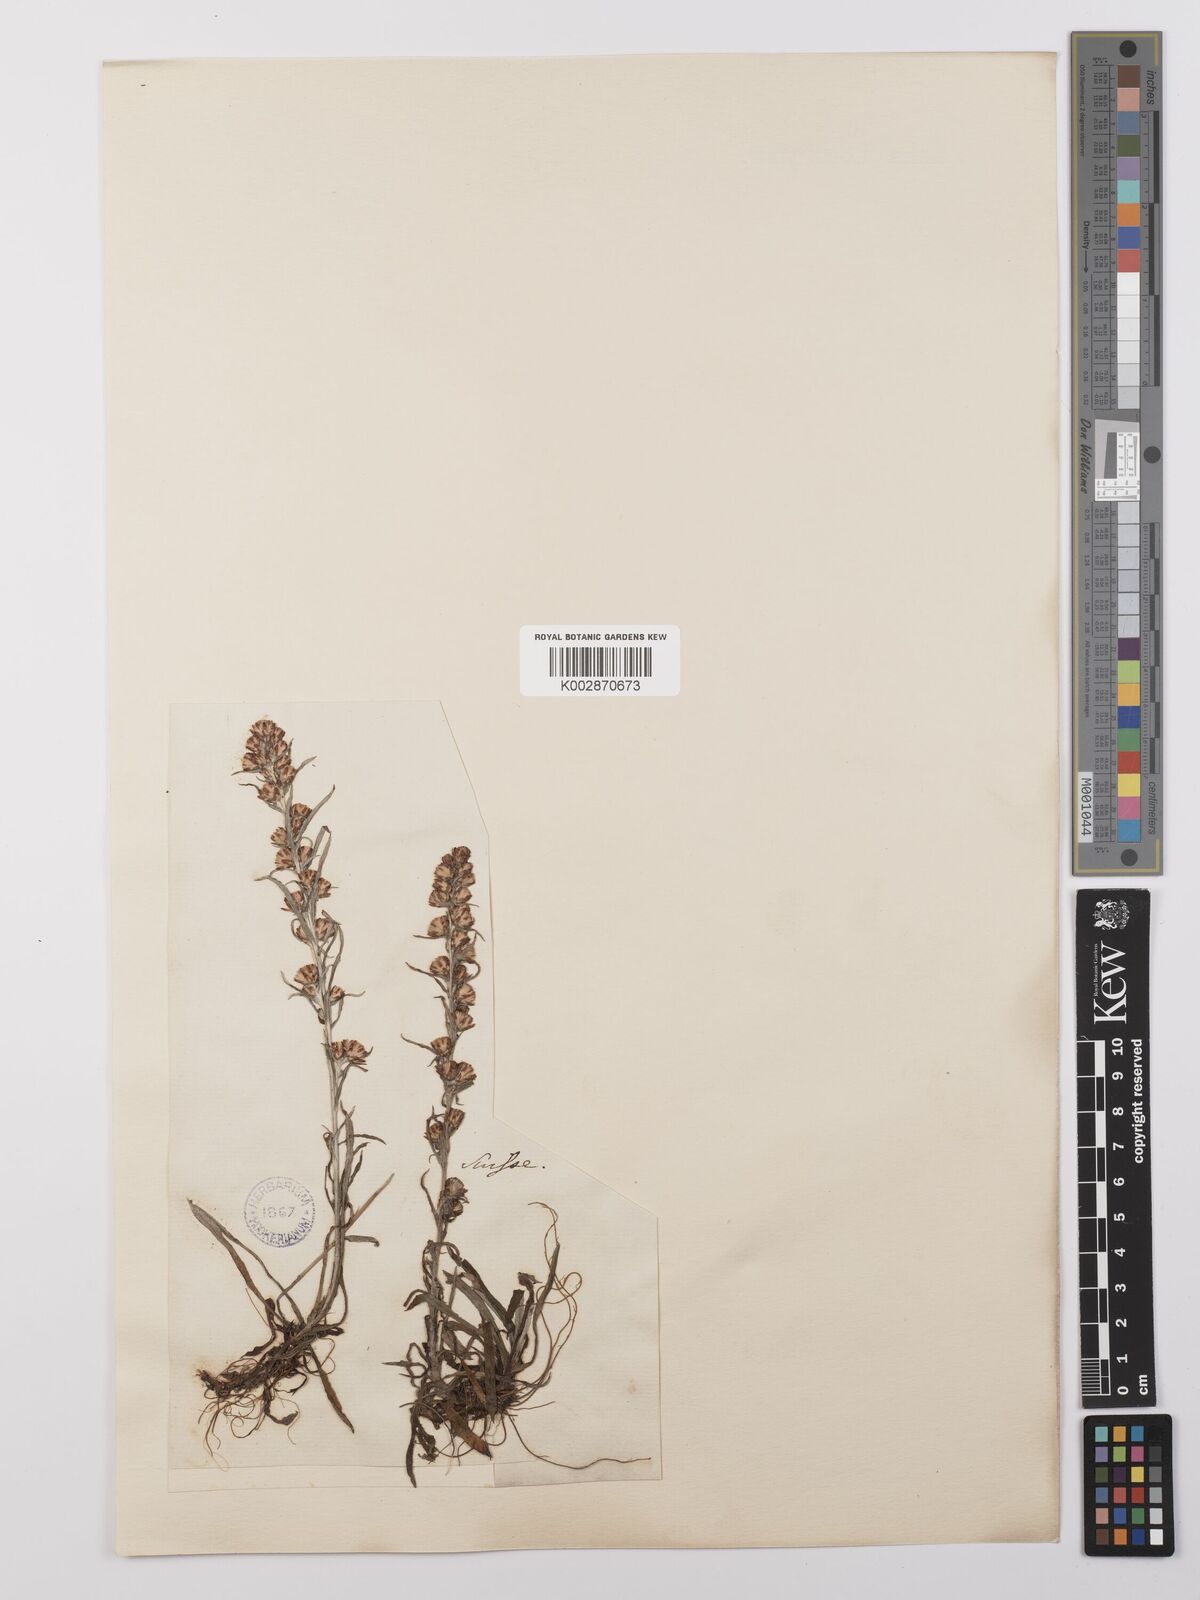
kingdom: Plantae
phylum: Tracheophyta
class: Magnoliopsida
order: Asterales
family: Asteraceae
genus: Omalotheca
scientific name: Omalotheca sylvatica
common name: Heath cudweed
